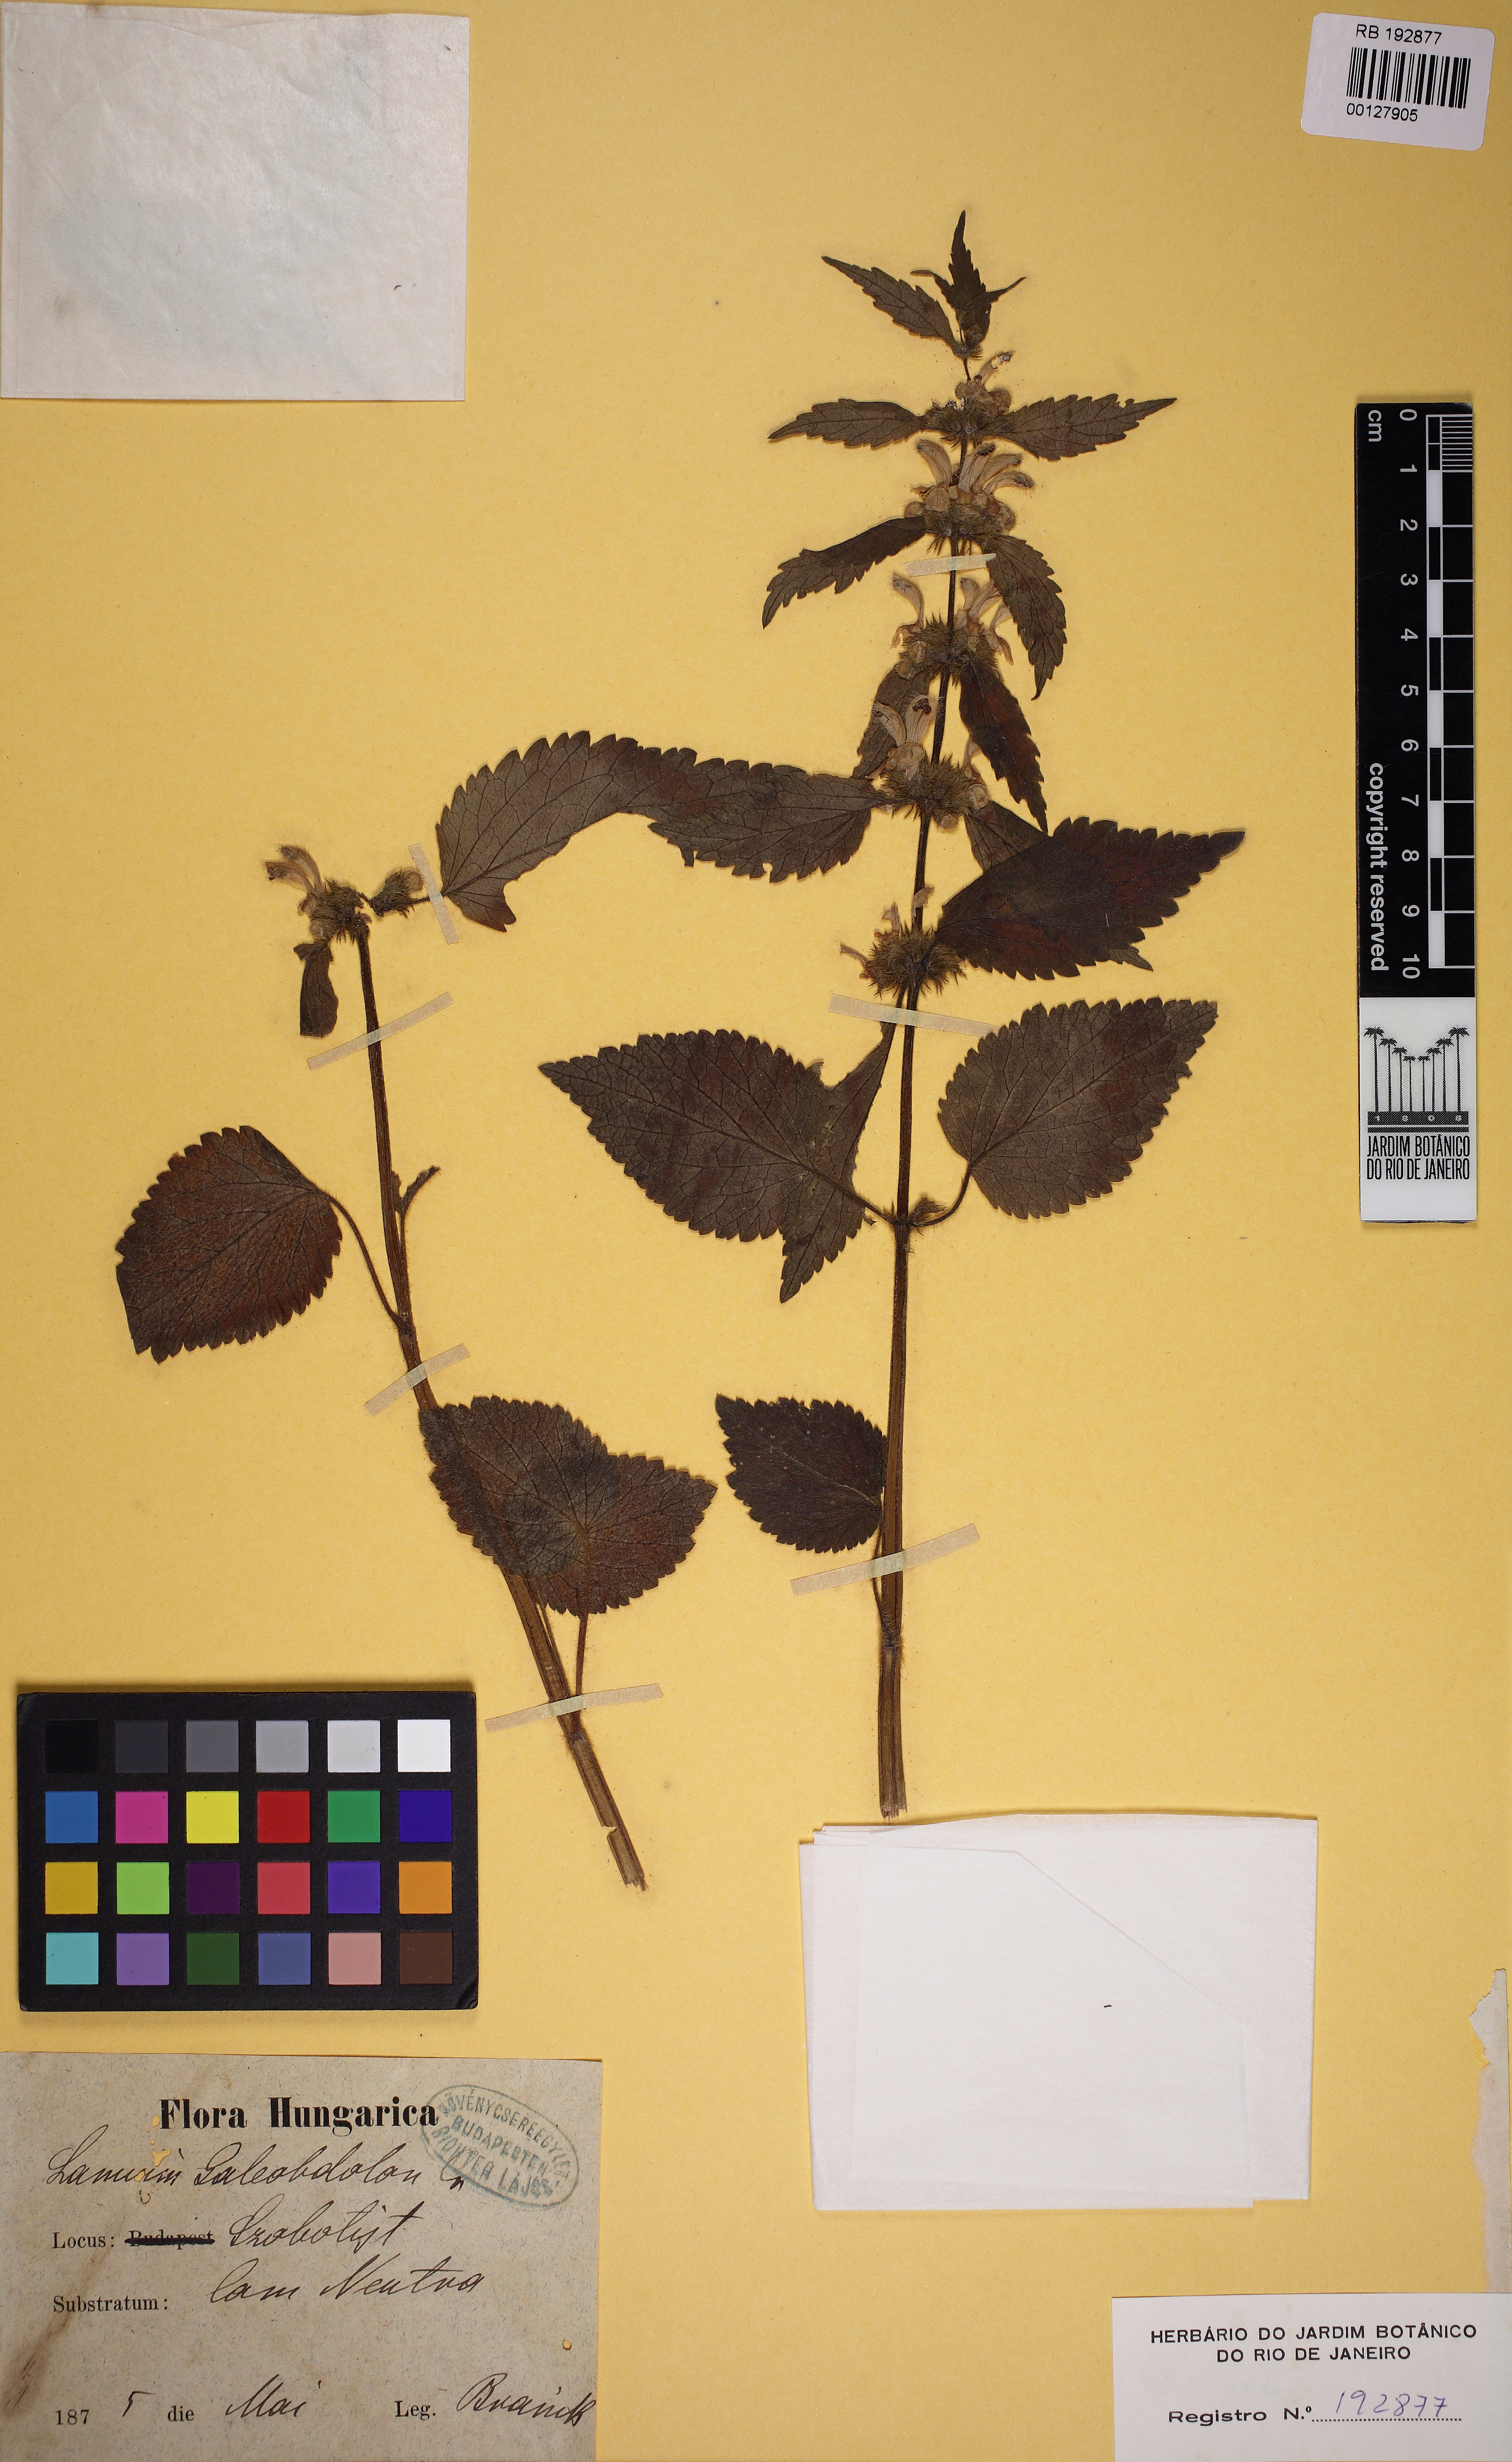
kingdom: Plantae
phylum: Tracheophyta
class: Magnoliopsida
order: Lamiales
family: Lamiaceae
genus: Lamium
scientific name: Lamium galeobdolon
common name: Yellow archangel
